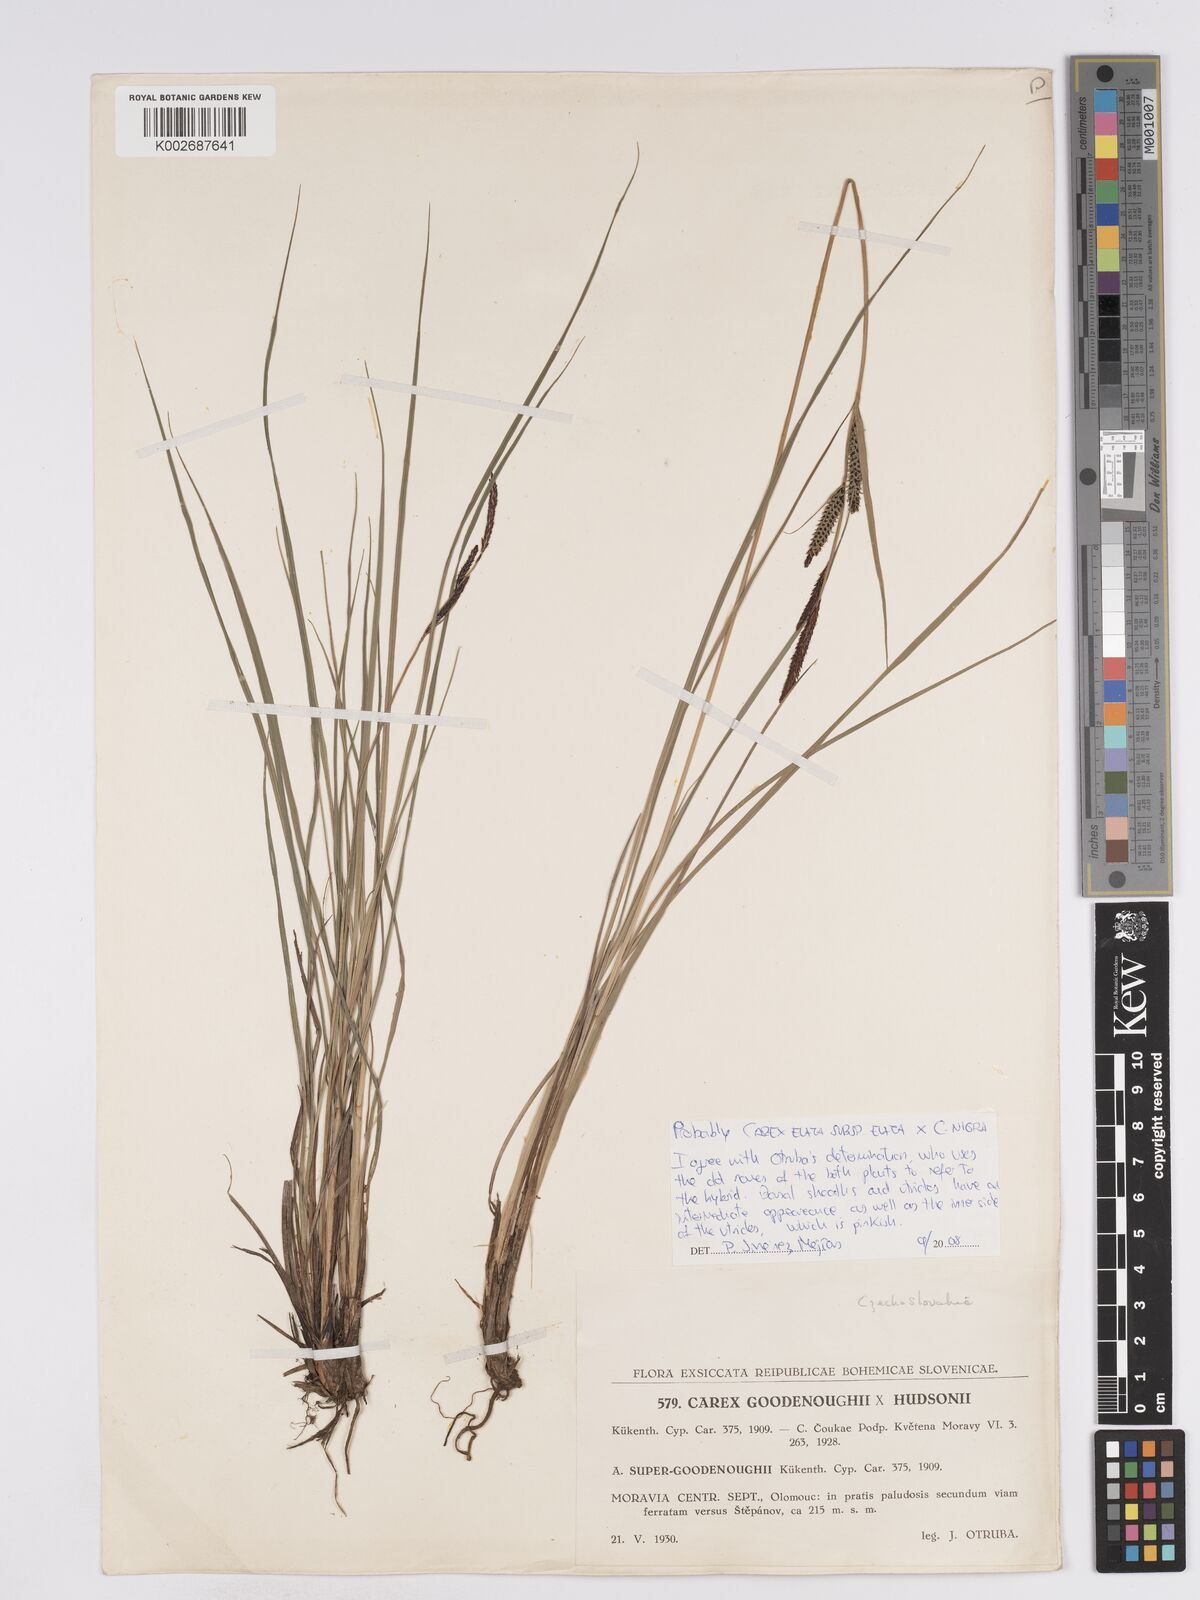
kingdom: Plantae
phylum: Tracheophyta
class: Liliopsida
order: Poales
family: Cyperaceae
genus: Carex
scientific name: Carex nigra
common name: Common sedge
